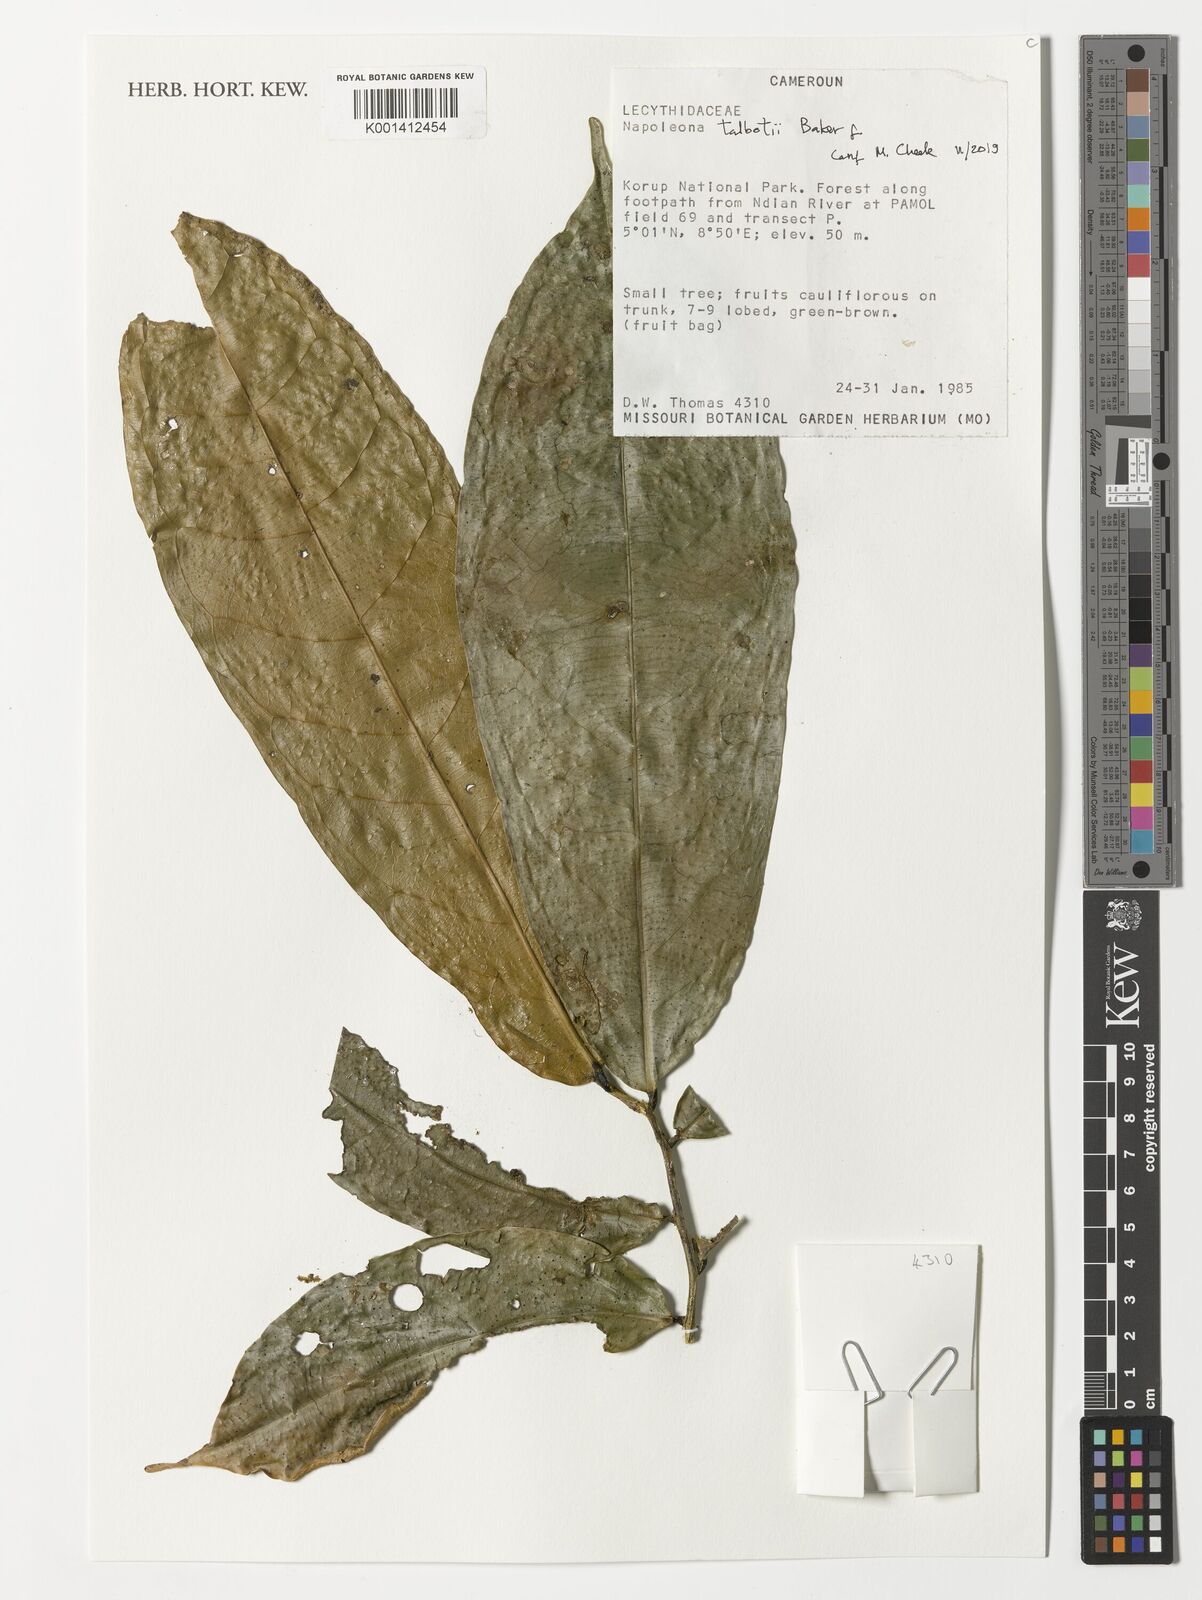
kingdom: Plantae
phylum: Tracheophyta
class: Magnoliopsida
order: Ericales
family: Lecythidaceae
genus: Napoleonaea
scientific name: Napoleonaea talbotii
